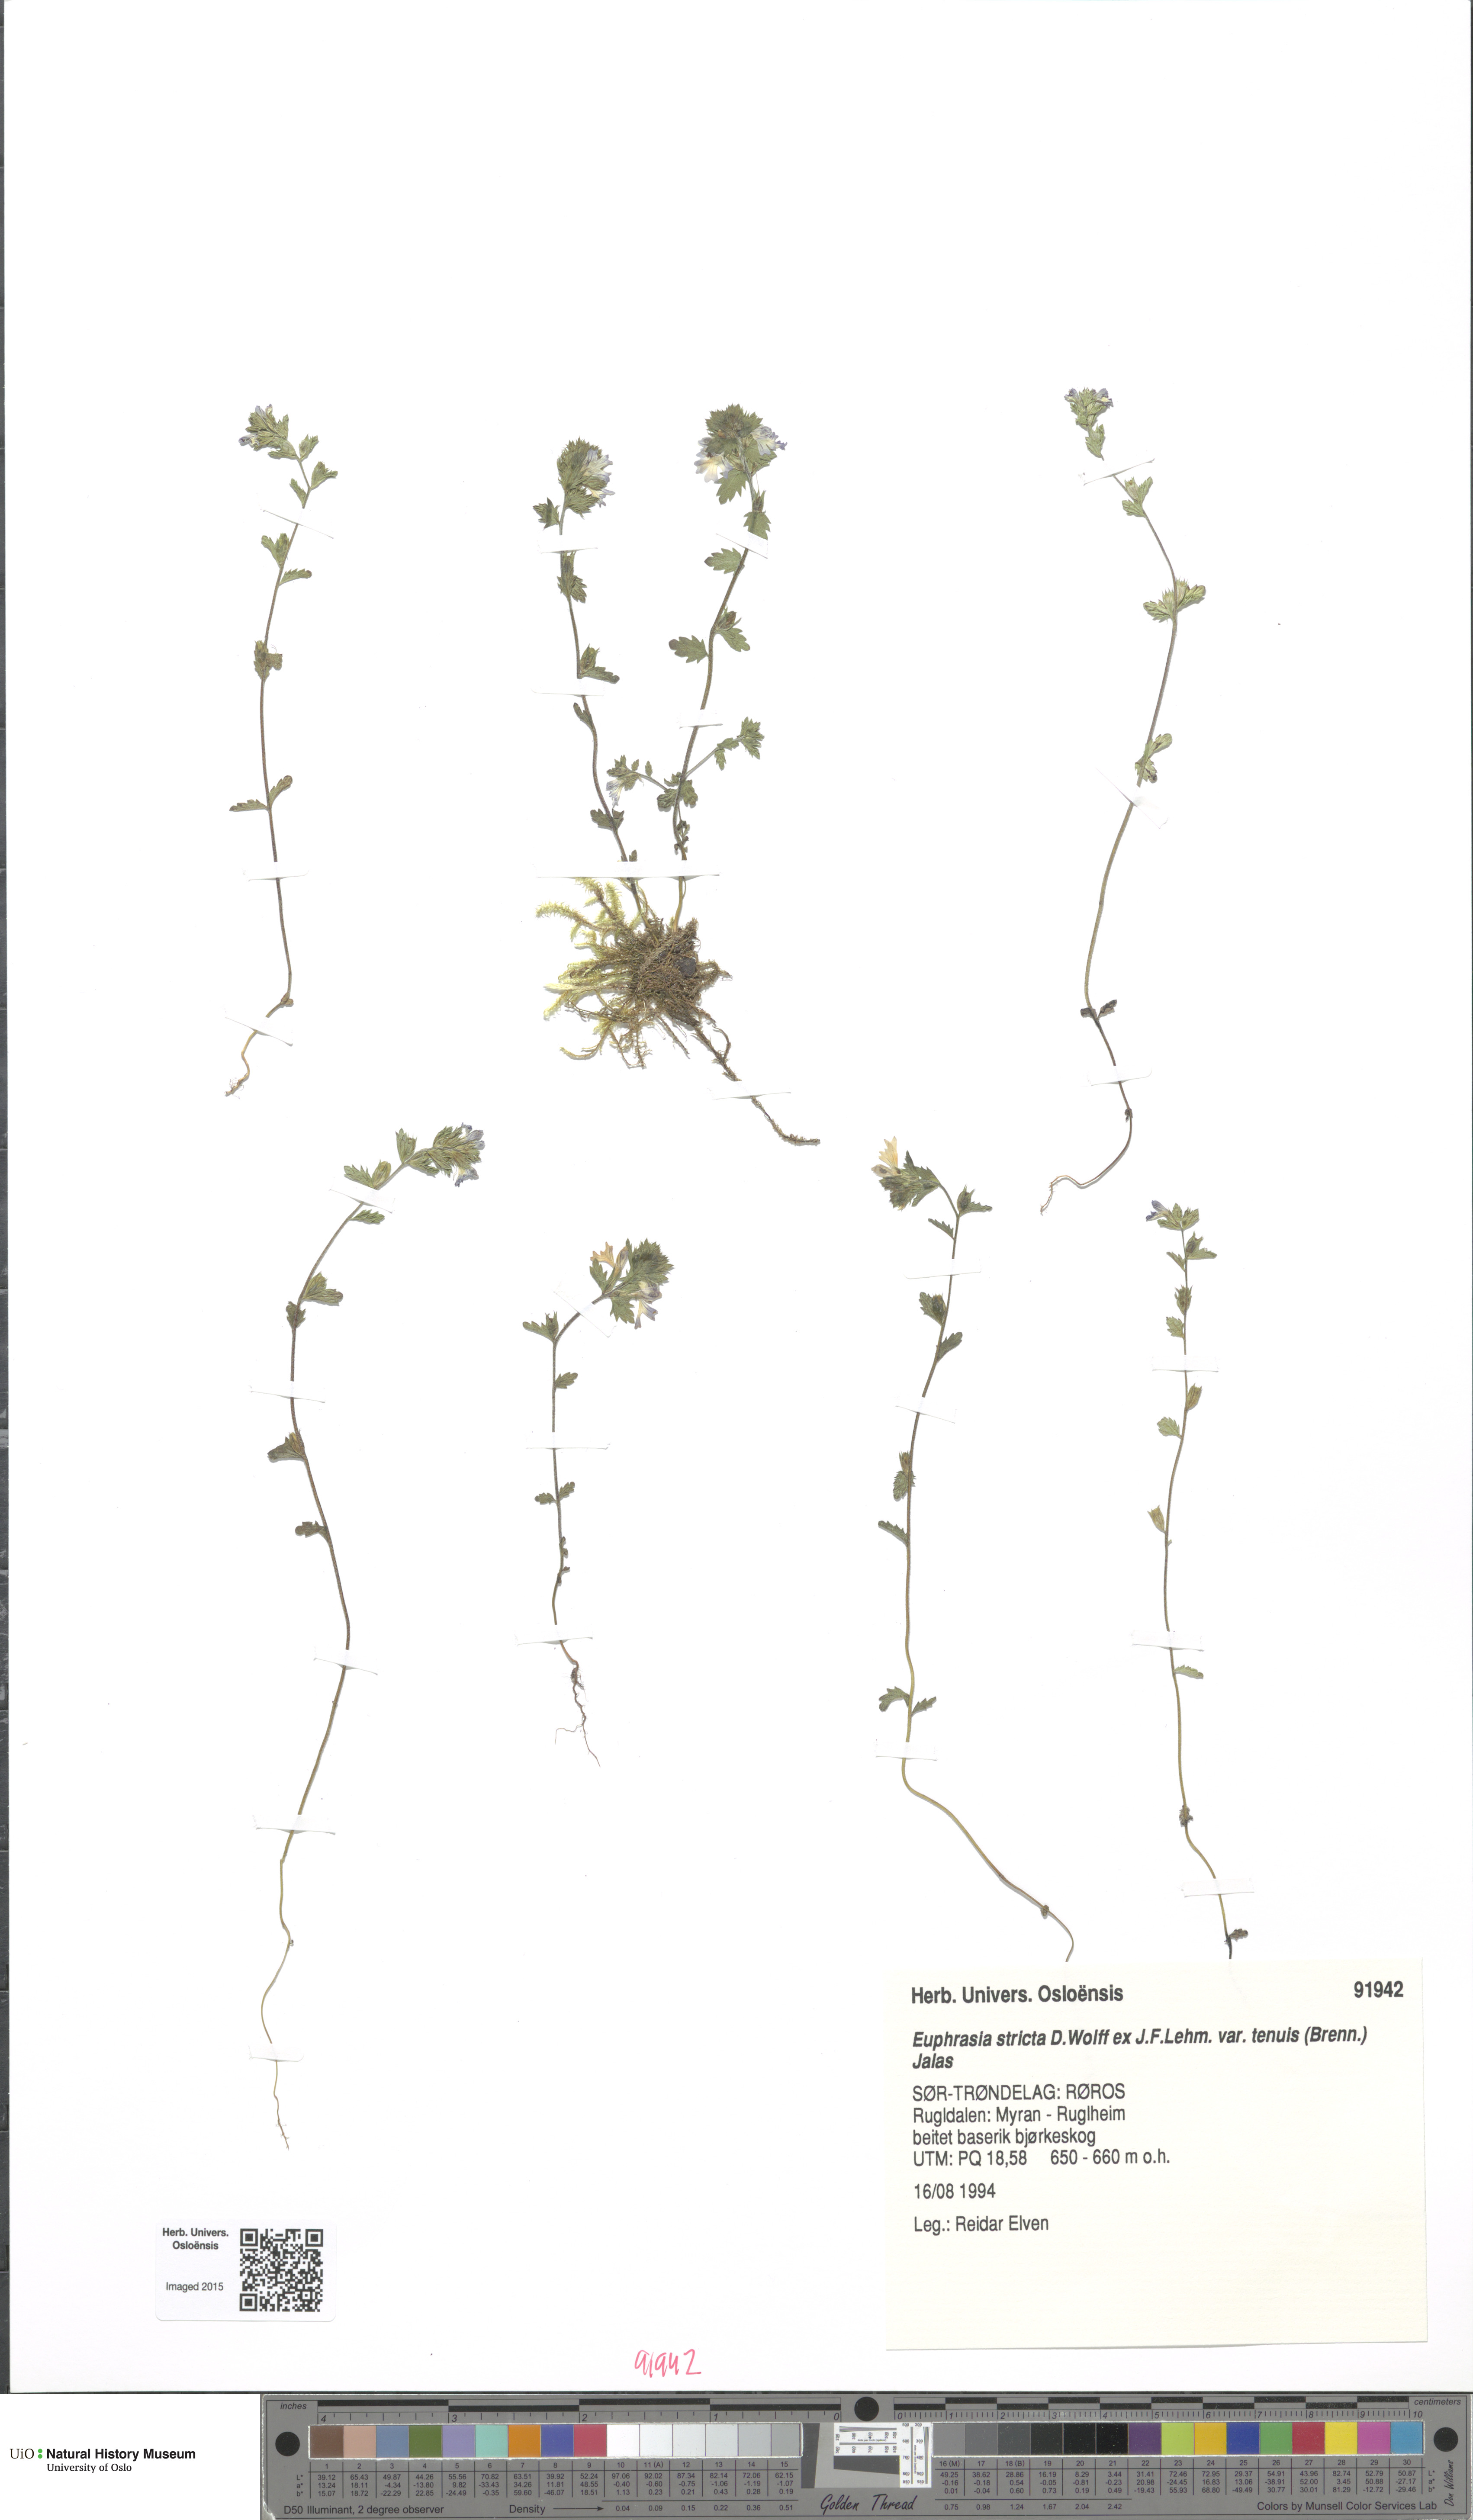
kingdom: Plantae
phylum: Tracheophyta
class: Magnoliopsida
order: Lamiales
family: Orobanchaceae
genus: Euphrasia
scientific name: Euphrasia vernalis
